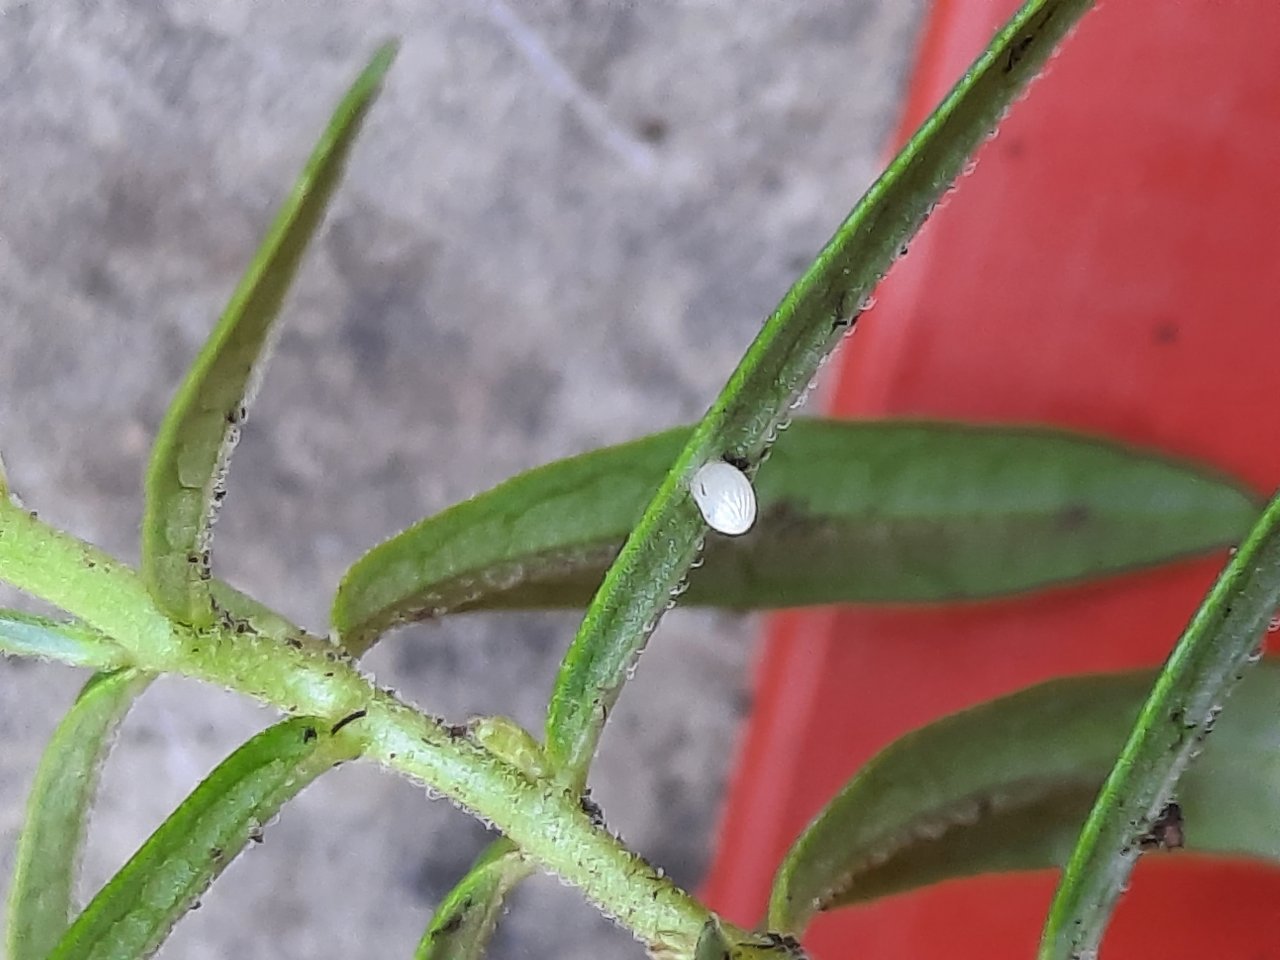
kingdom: Animalia
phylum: Arthropoda
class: Insecta
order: Lepidoptera
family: Nymphalidae
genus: Danaus
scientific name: Danaus plexippus
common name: Monarch
